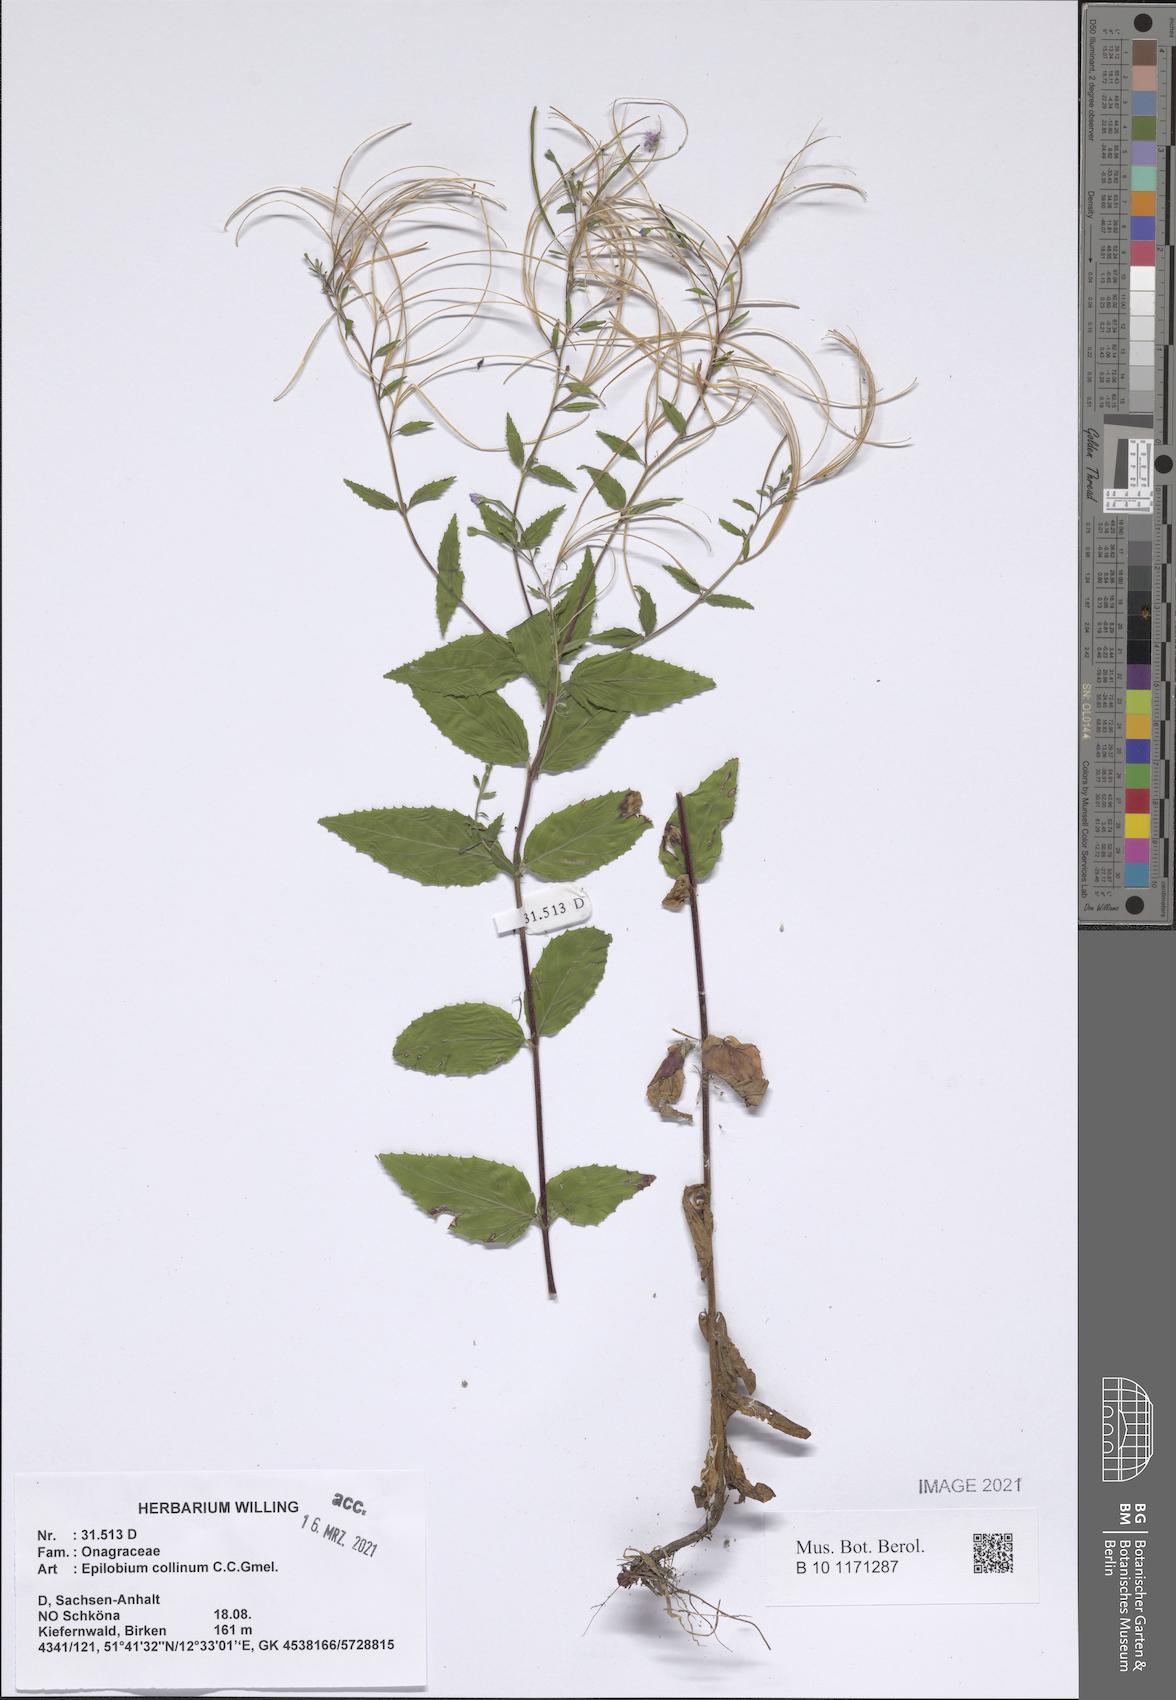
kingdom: Plantae
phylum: Tracheophyta
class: Magnoliopsida
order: Myrtales
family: Onagraceae
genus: Epilobium
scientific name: Epilobium collinum
